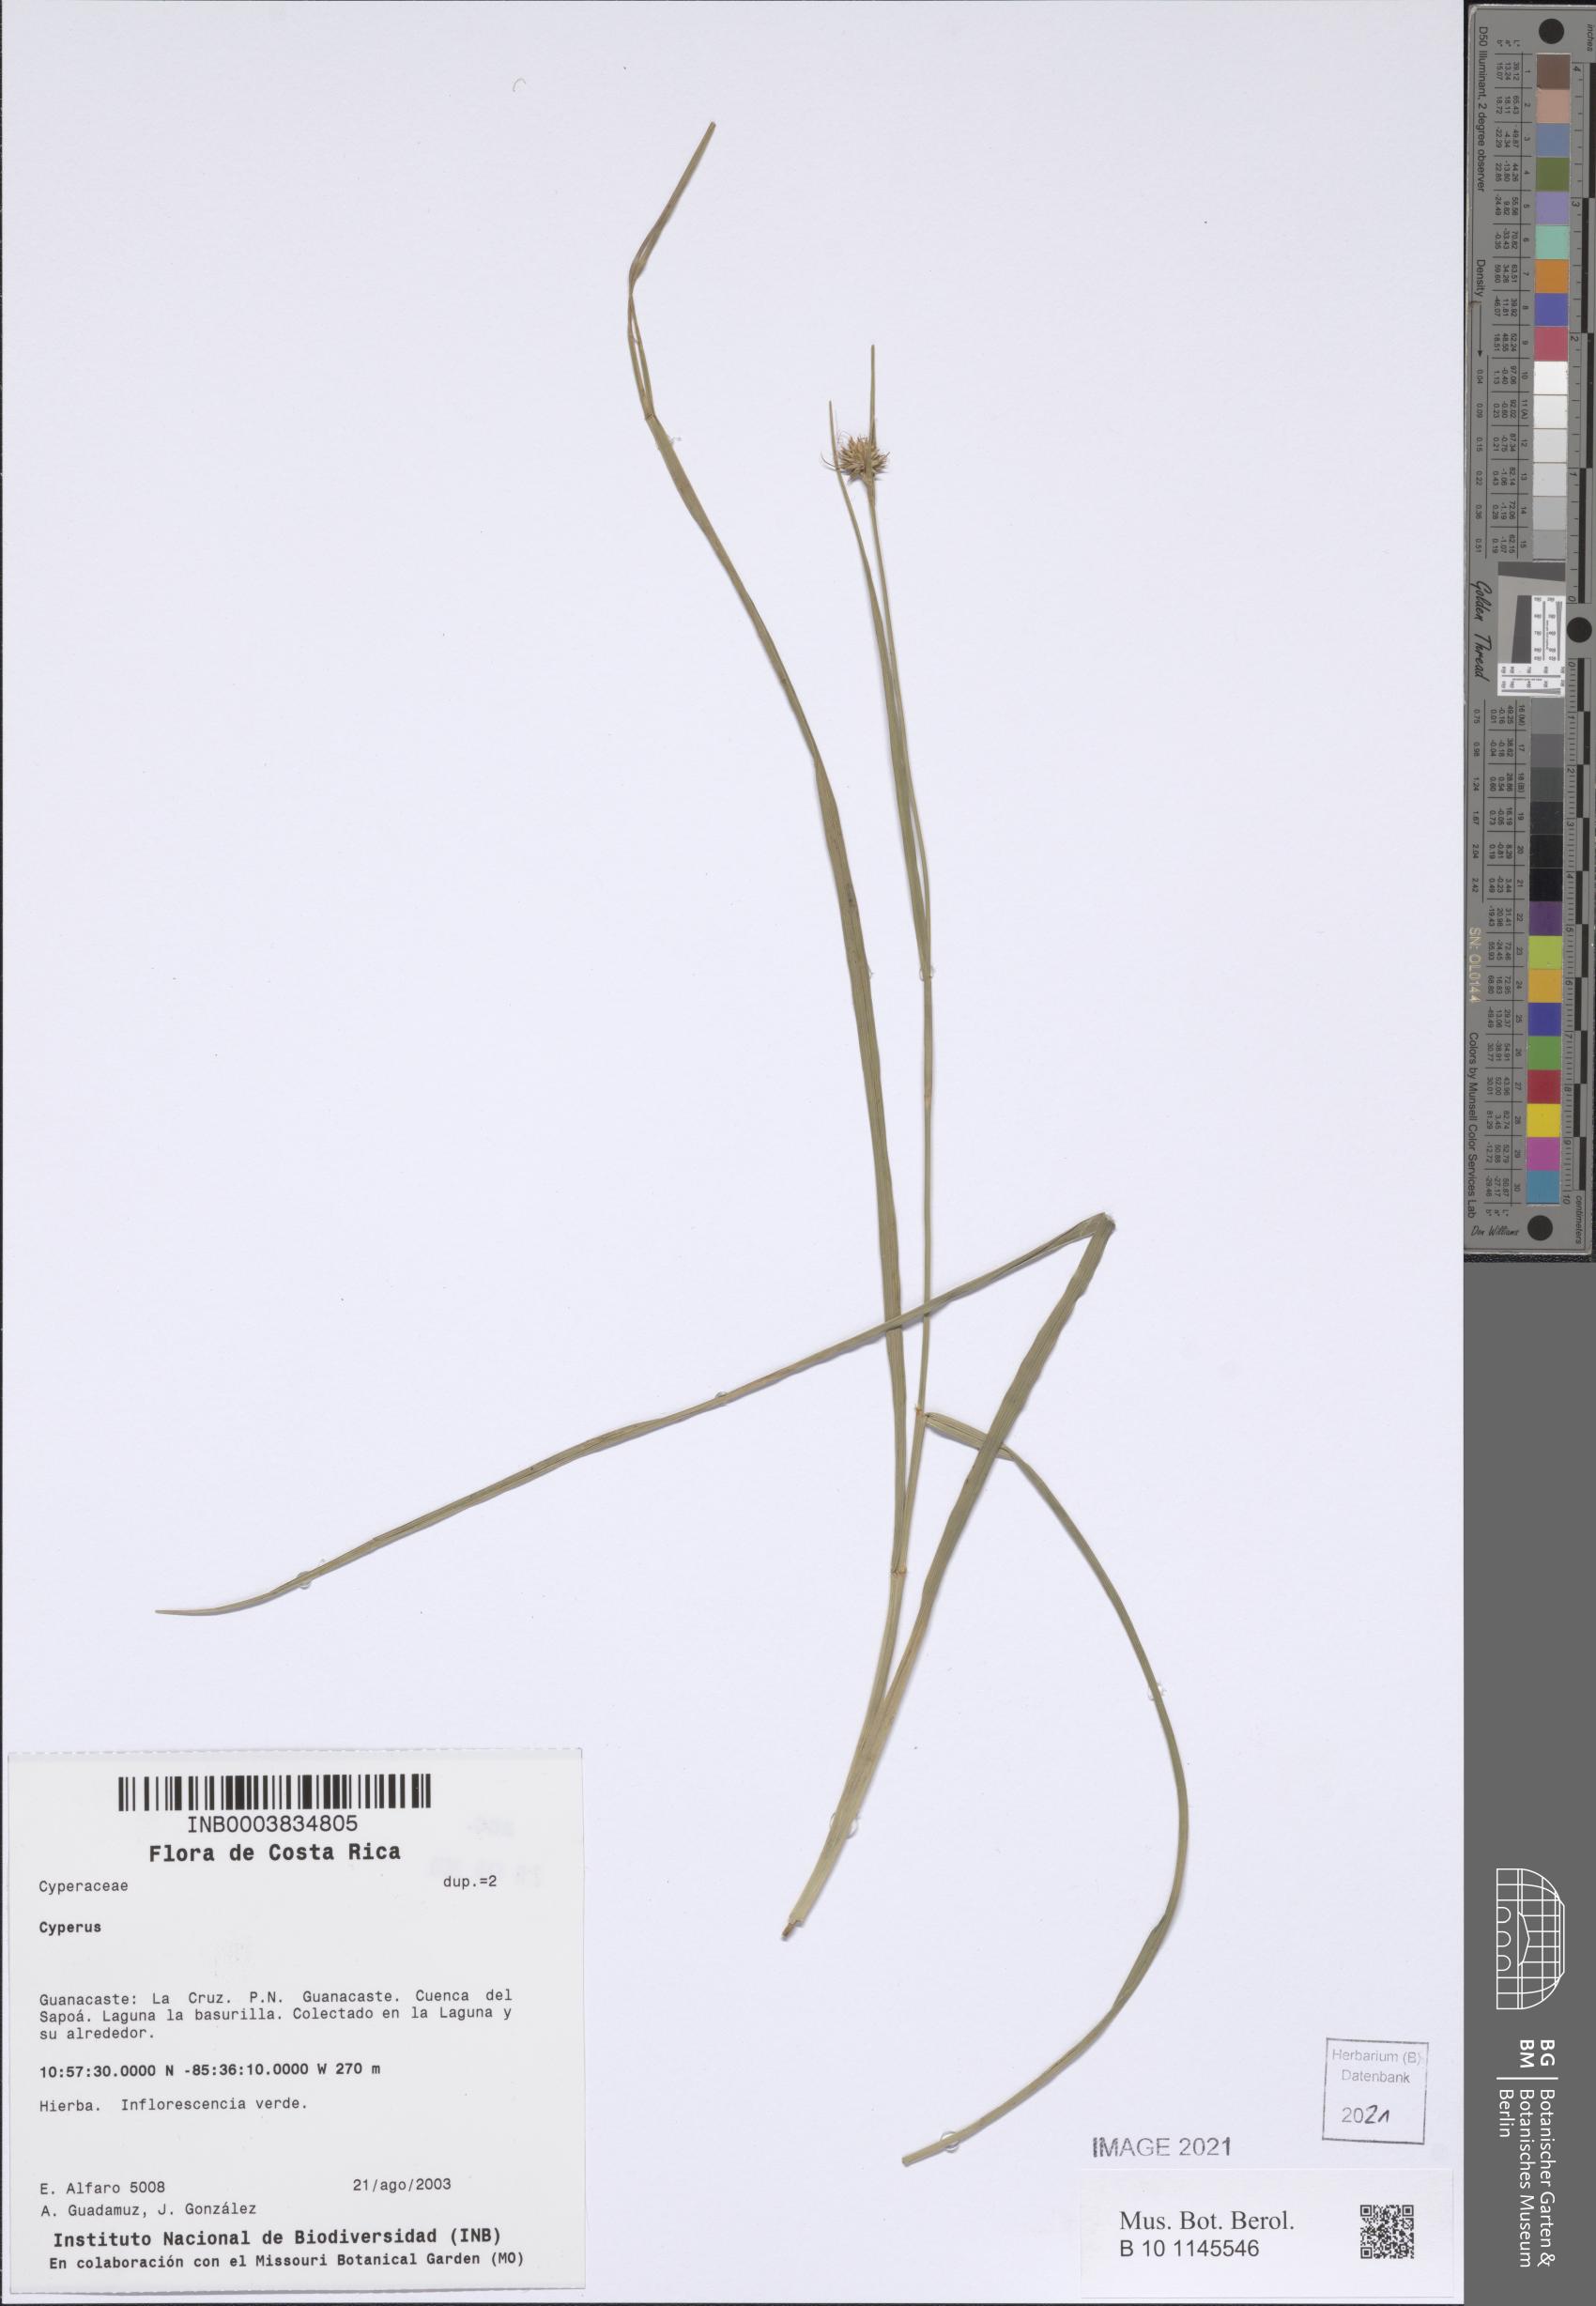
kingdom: Plantae
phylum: Tracheophyta
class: Liliopsida
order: Poales
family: Cyperaceae
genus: Cyperus
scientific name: Cyperus
